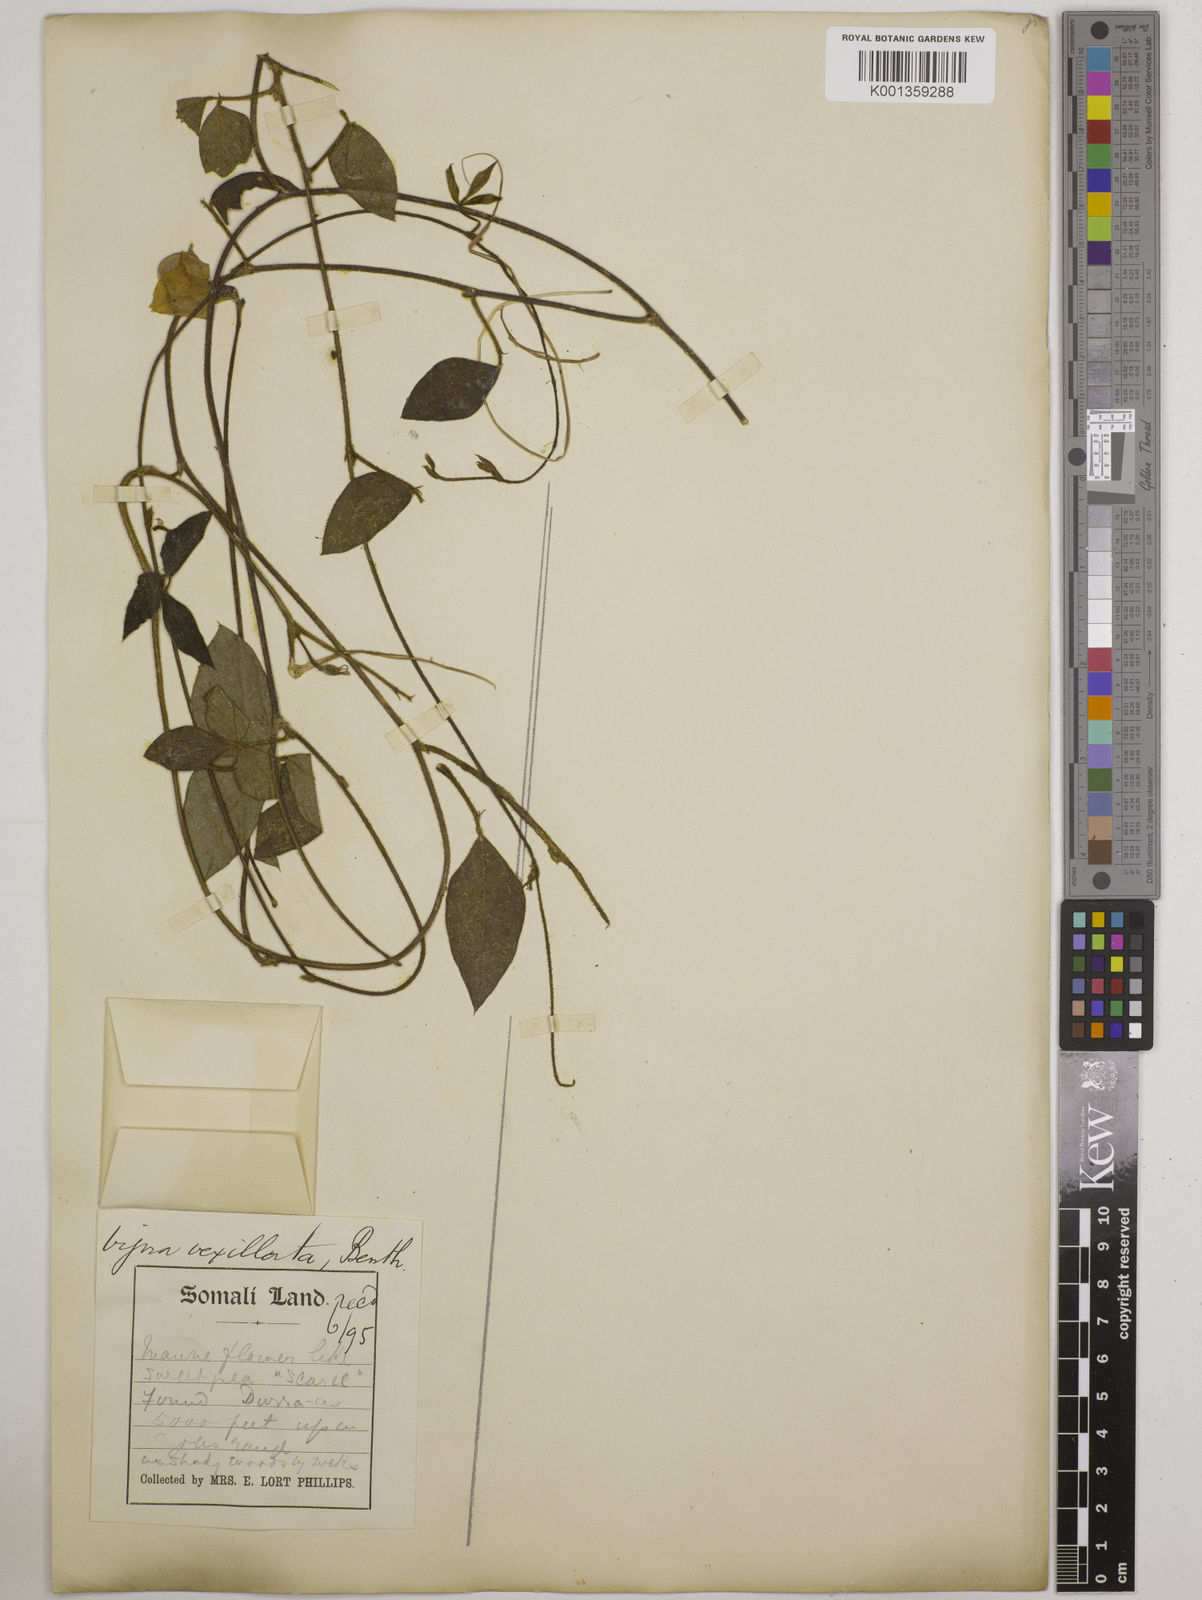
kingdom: Plantae
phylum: Tracheophyta
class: Magnoliopsida
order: Fabales
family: Fabaceae
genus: Vigna
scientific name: Vigna vexillata
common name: Zombi pea
